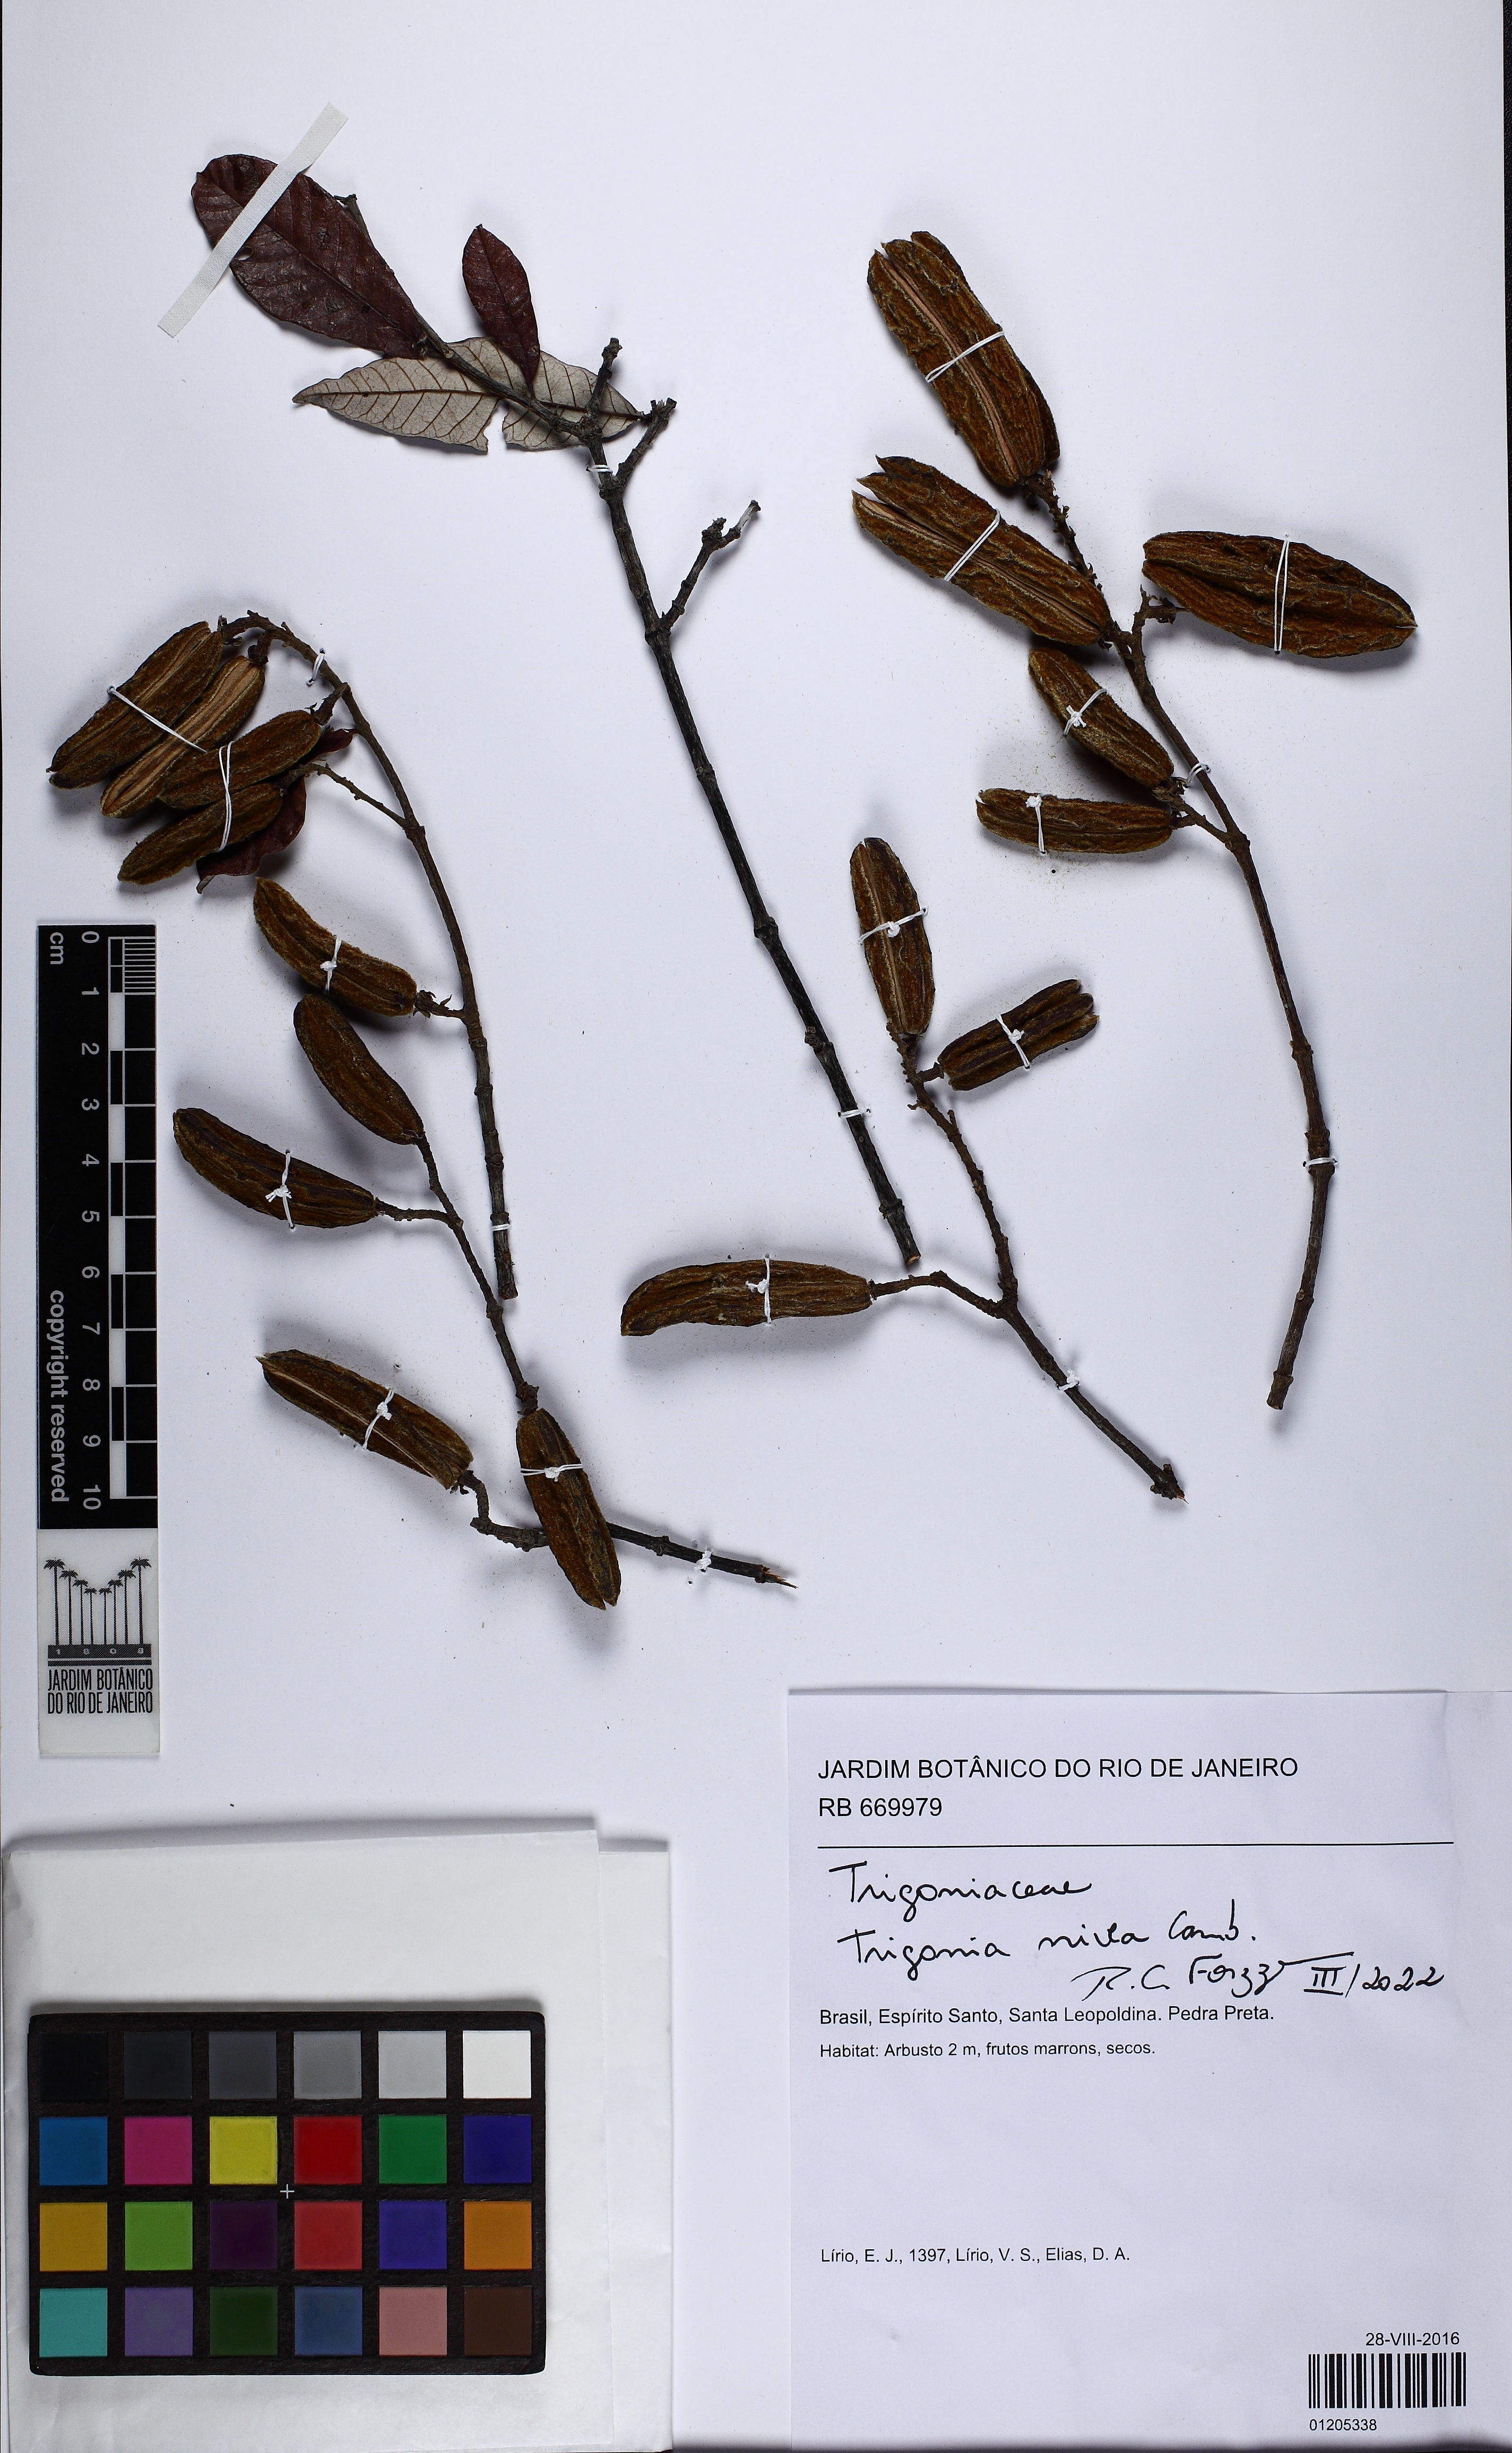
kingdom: Plantae
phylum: Tracheophyta
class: Magnoliopsida
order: Malpighiales
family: Trigoniaceae
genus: Trigonia
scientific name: Trigonia nivea
